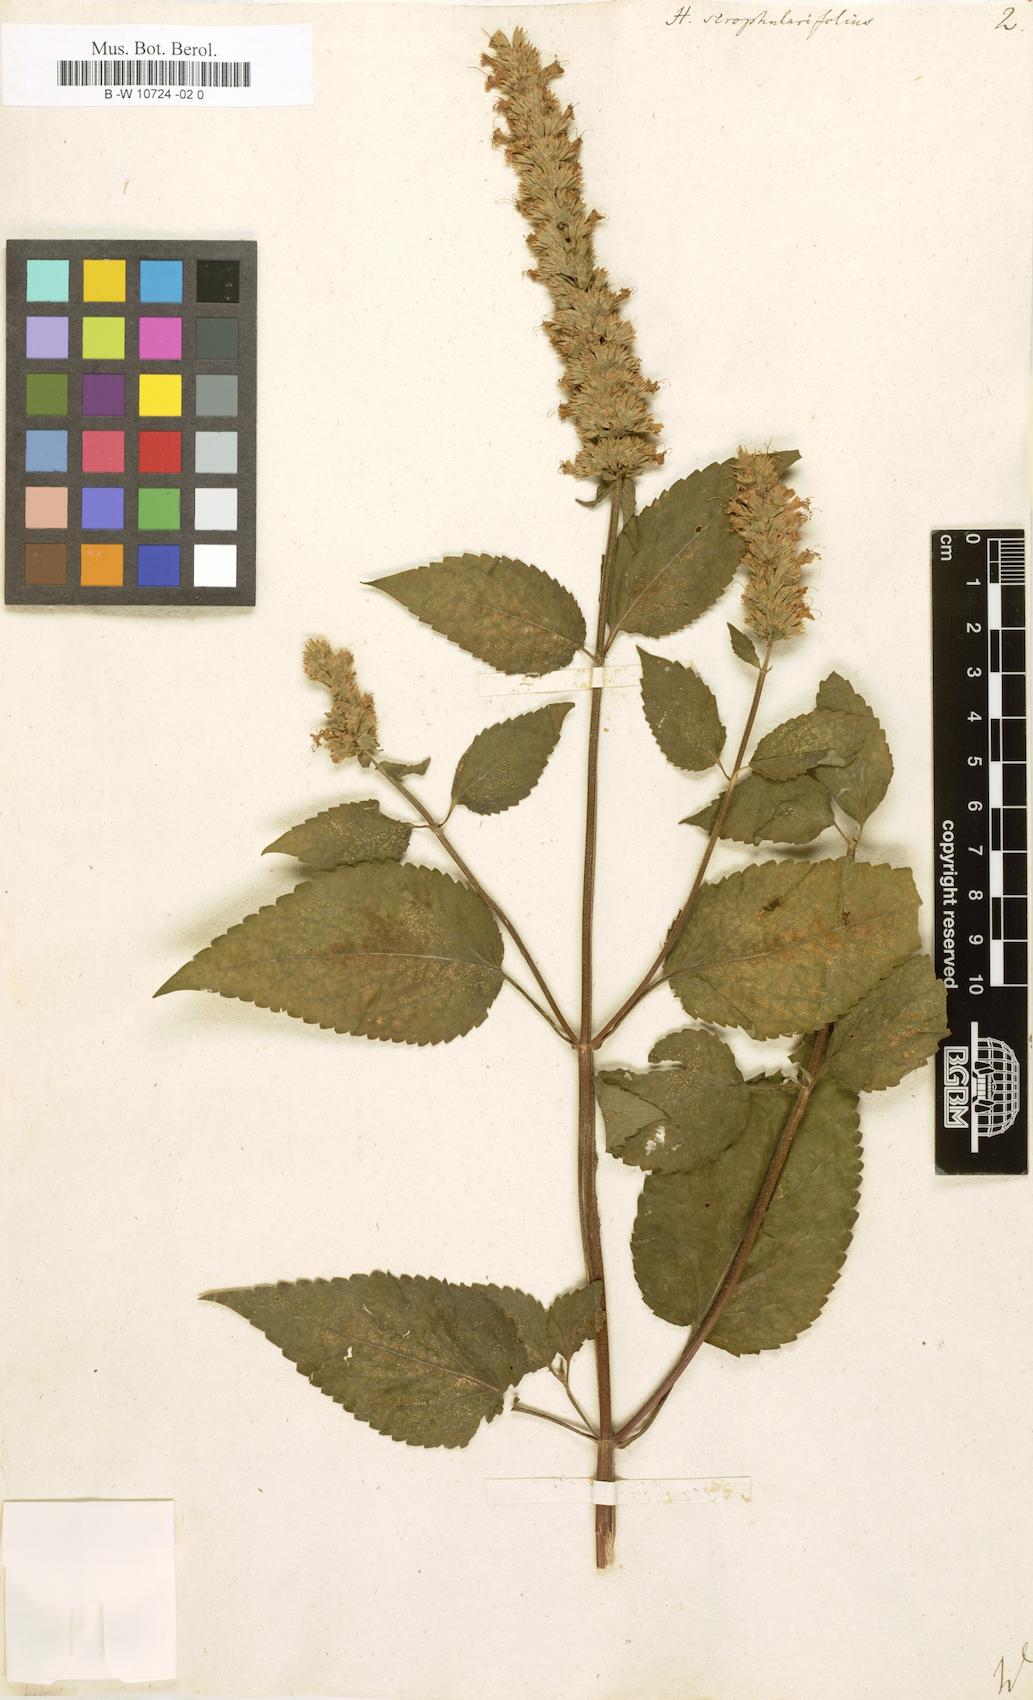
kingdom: Plantae
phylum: Tracheophyta
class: Magnoliopsida
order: Lamiales
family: Lamiaceae
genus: Agastache
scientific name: Agastache scrophulariifolia
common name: Figwort giant hyssop
